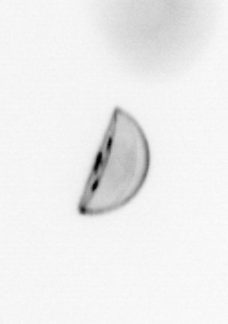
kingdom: Chromista
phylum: Ochrophyta
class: Bacillariophyceae
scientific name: Bacillariophyceae
